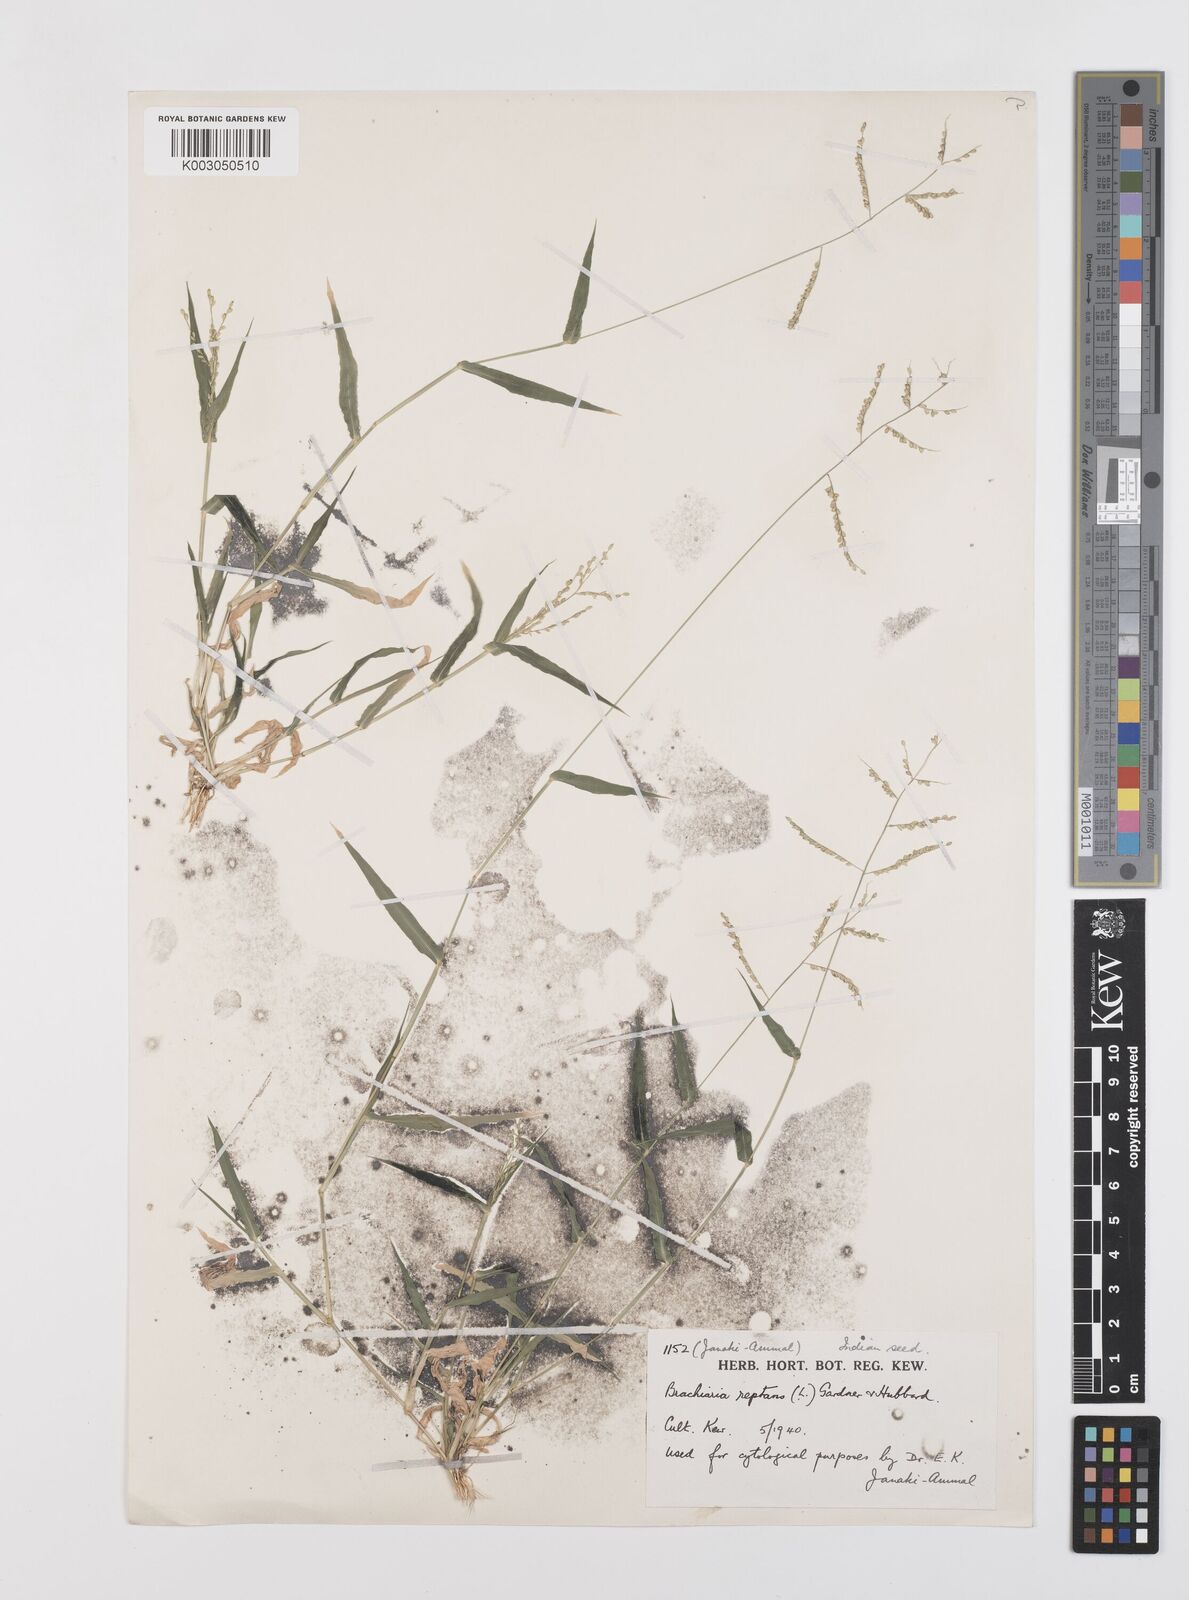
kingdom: Plantae
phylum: Tracheophyta
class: Liliopsida
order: Poales
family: Poaceae
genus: Urochloa
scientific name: Urochloa reptans
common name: Sprawling signalgrass
